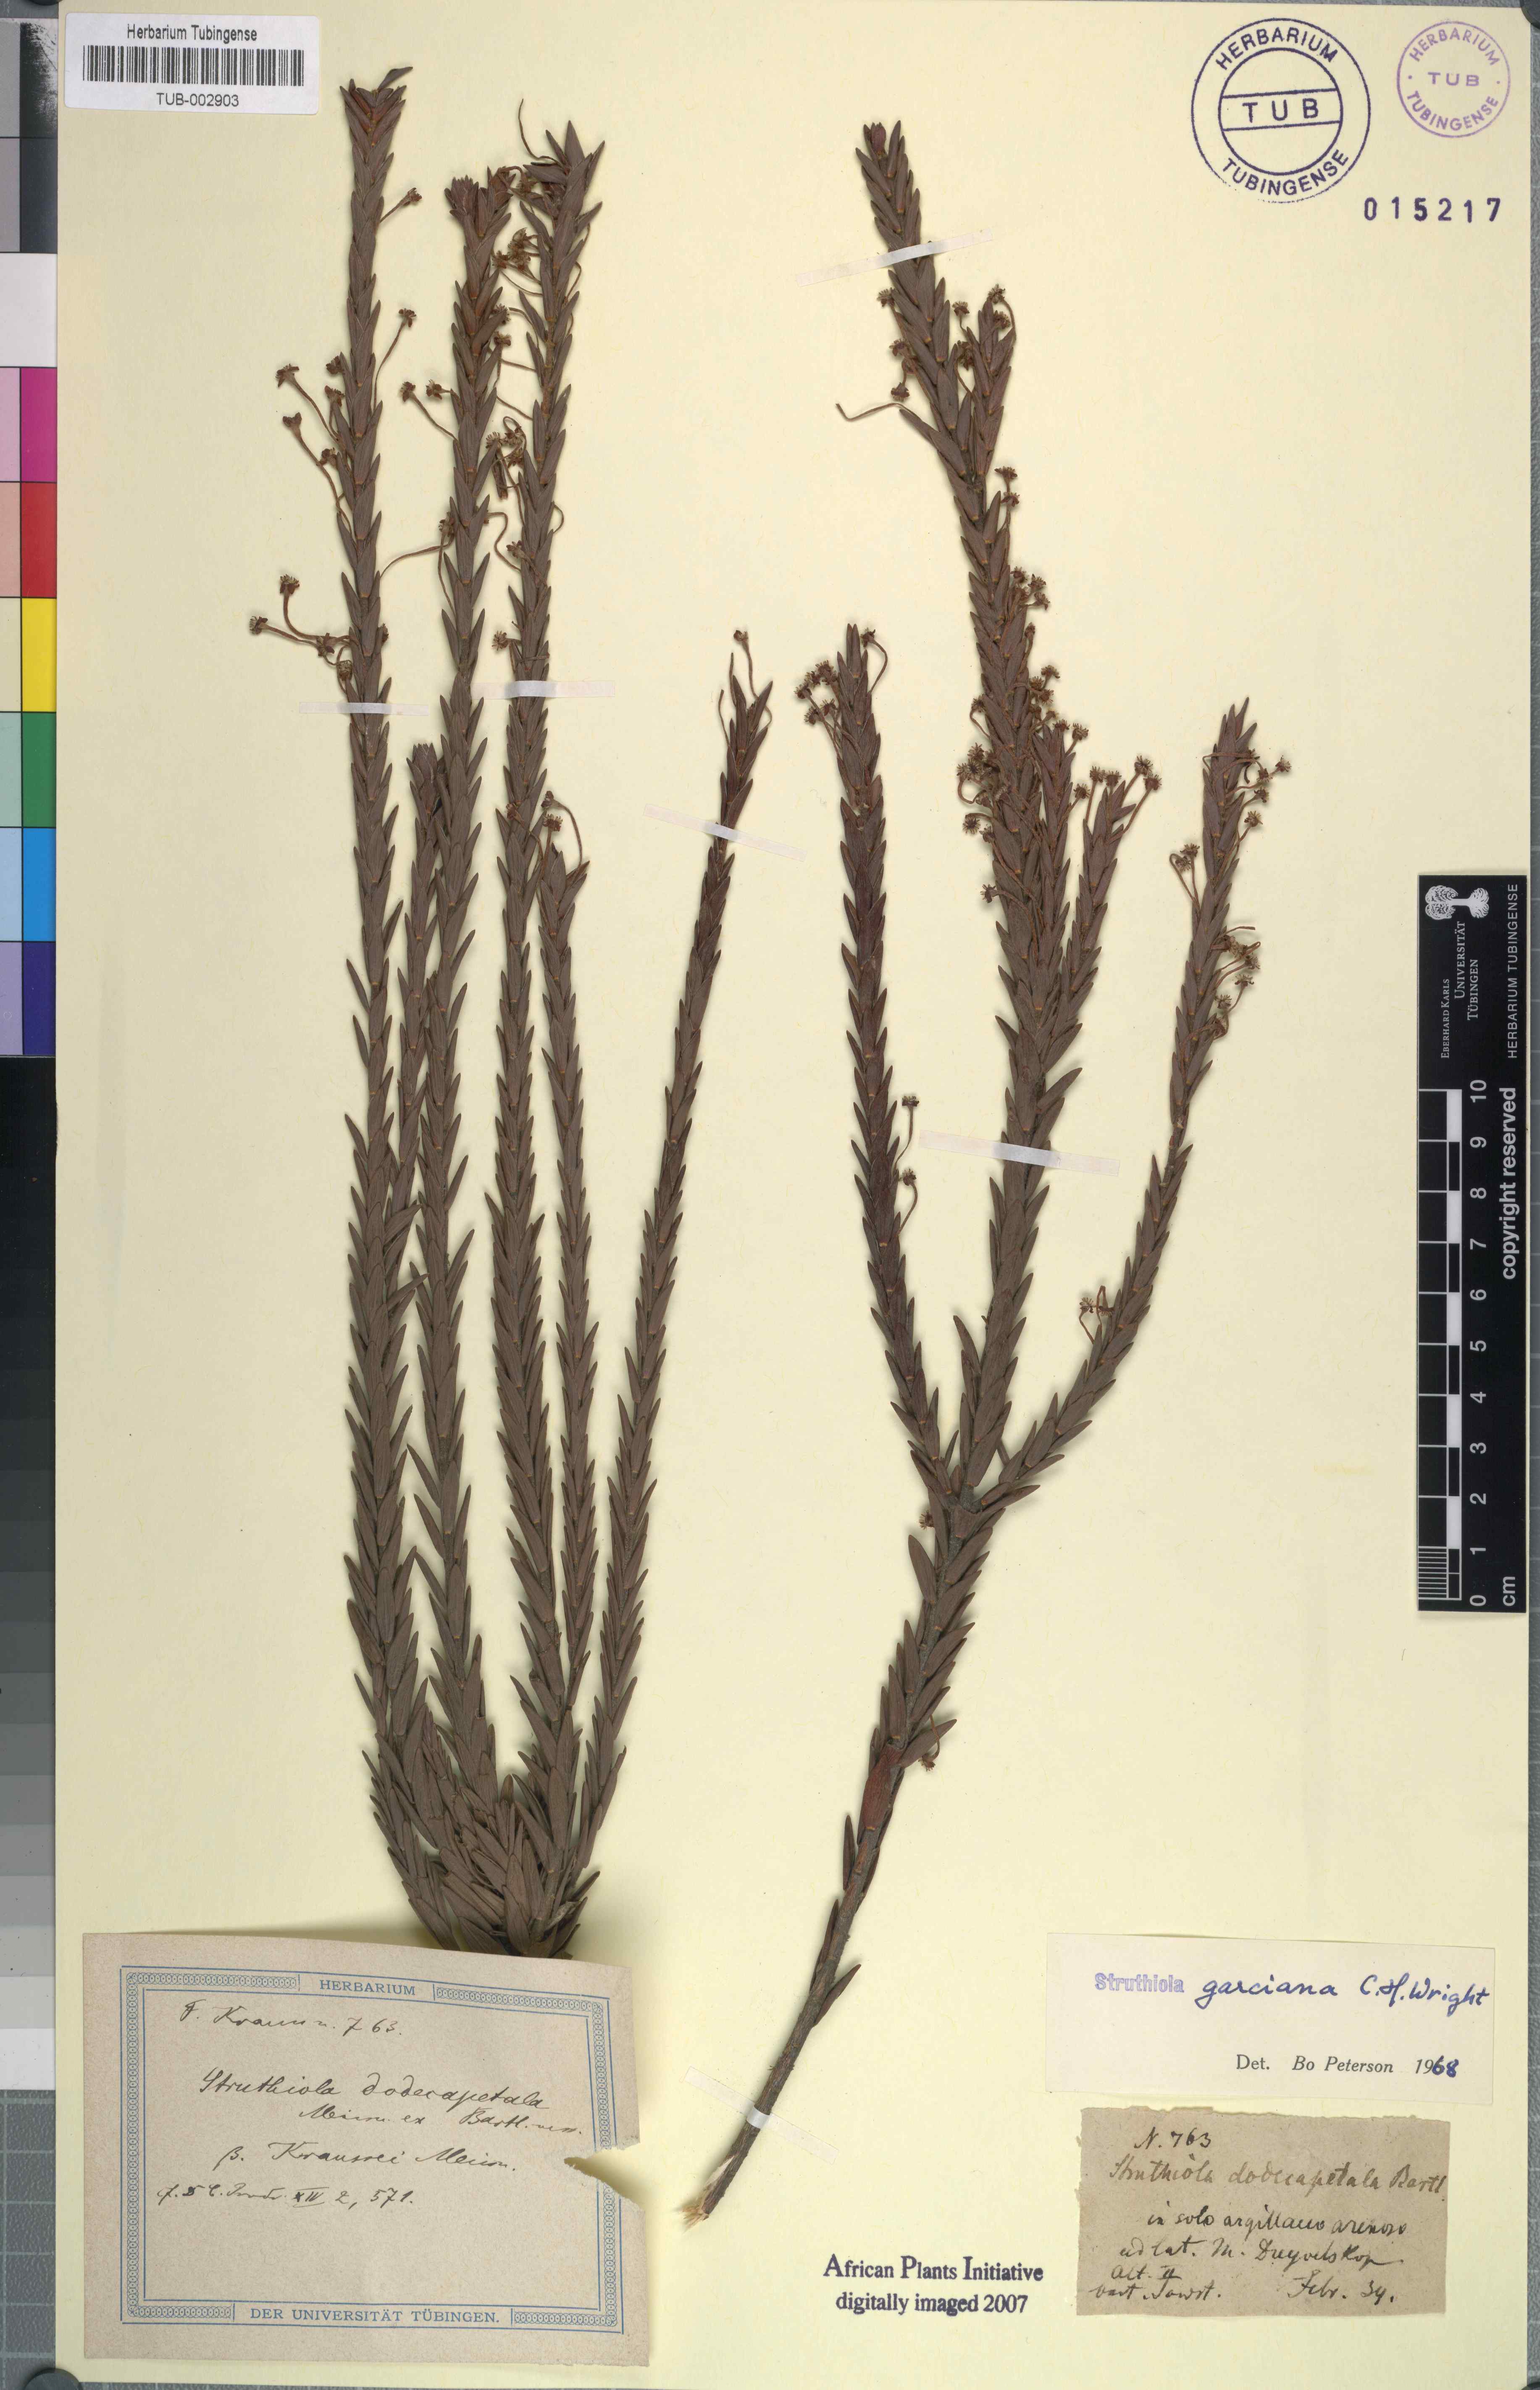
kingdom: Plantae
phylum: Tracheophyta
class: Magnoliopsida
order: Malvales
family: Thymelaeaceae
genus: Struthiola
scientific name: Struthiola garciana
